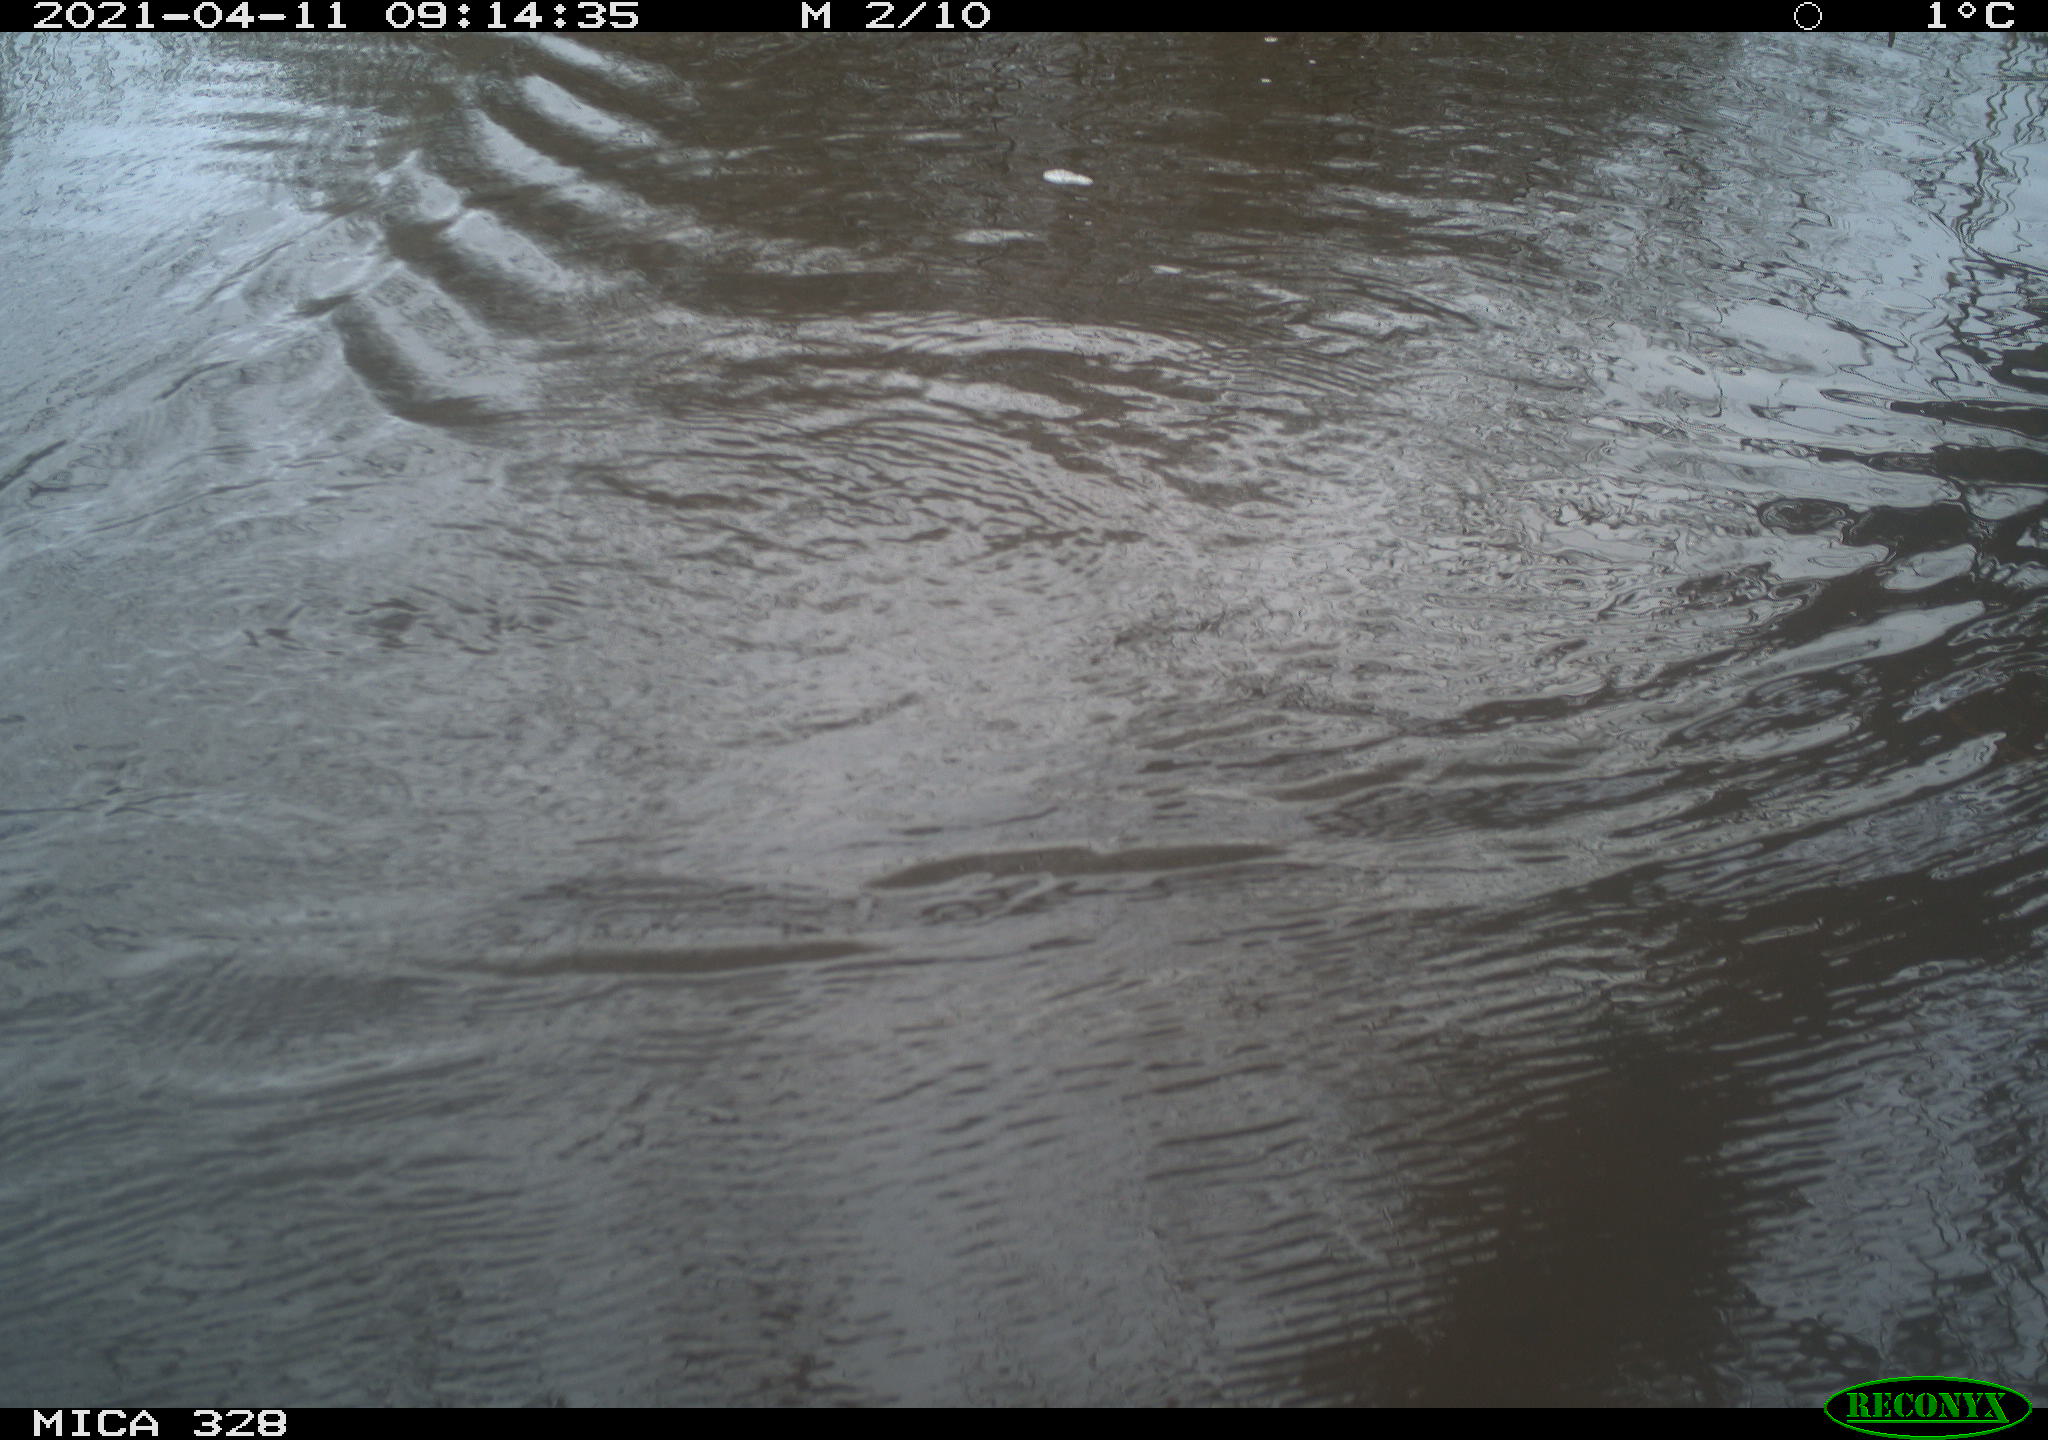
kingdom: Animalia
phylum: Chordata
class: Mammalia
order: Rodentia
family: Cricetidae
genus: Ondatra
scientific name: Ondatra zibethicus
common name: Muskrat
